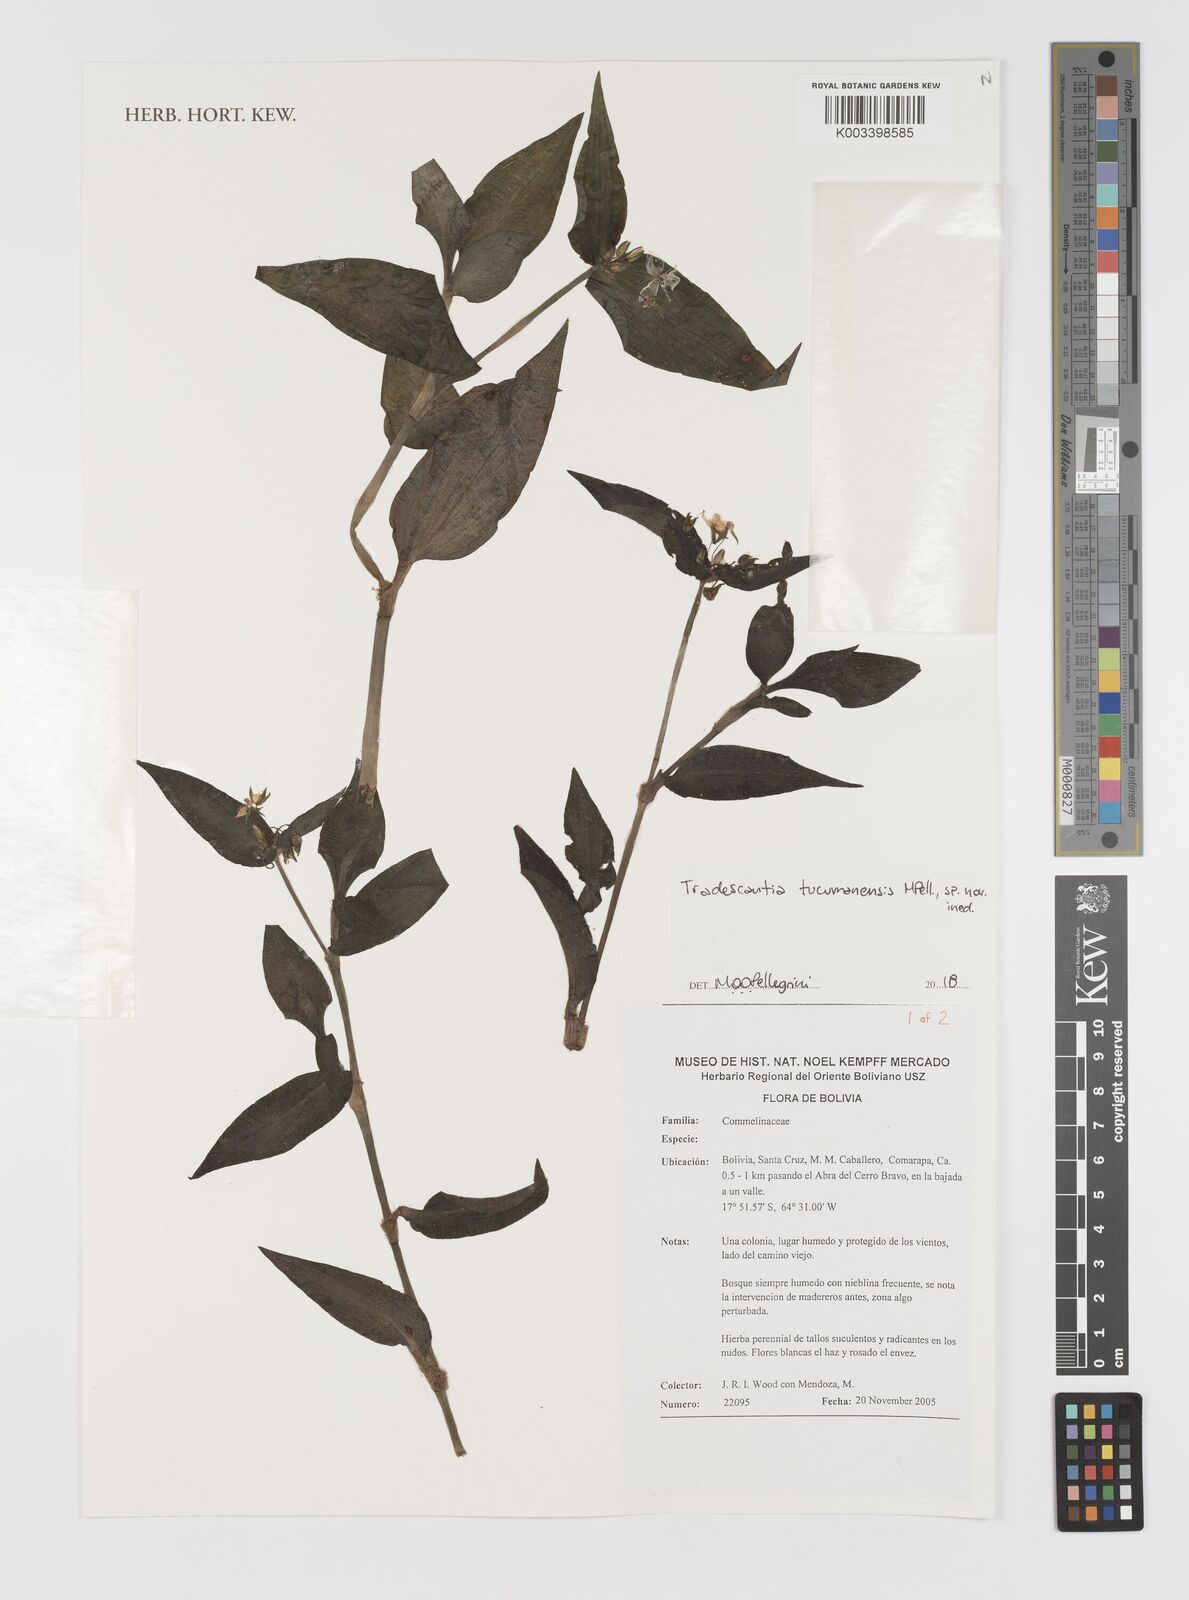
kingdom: Plantae
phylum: Tracheophyta
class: Liliopsida
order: Commelinales
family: Commelinaceae
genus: Tradescantia
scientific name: Tradescantia tucumanensis
